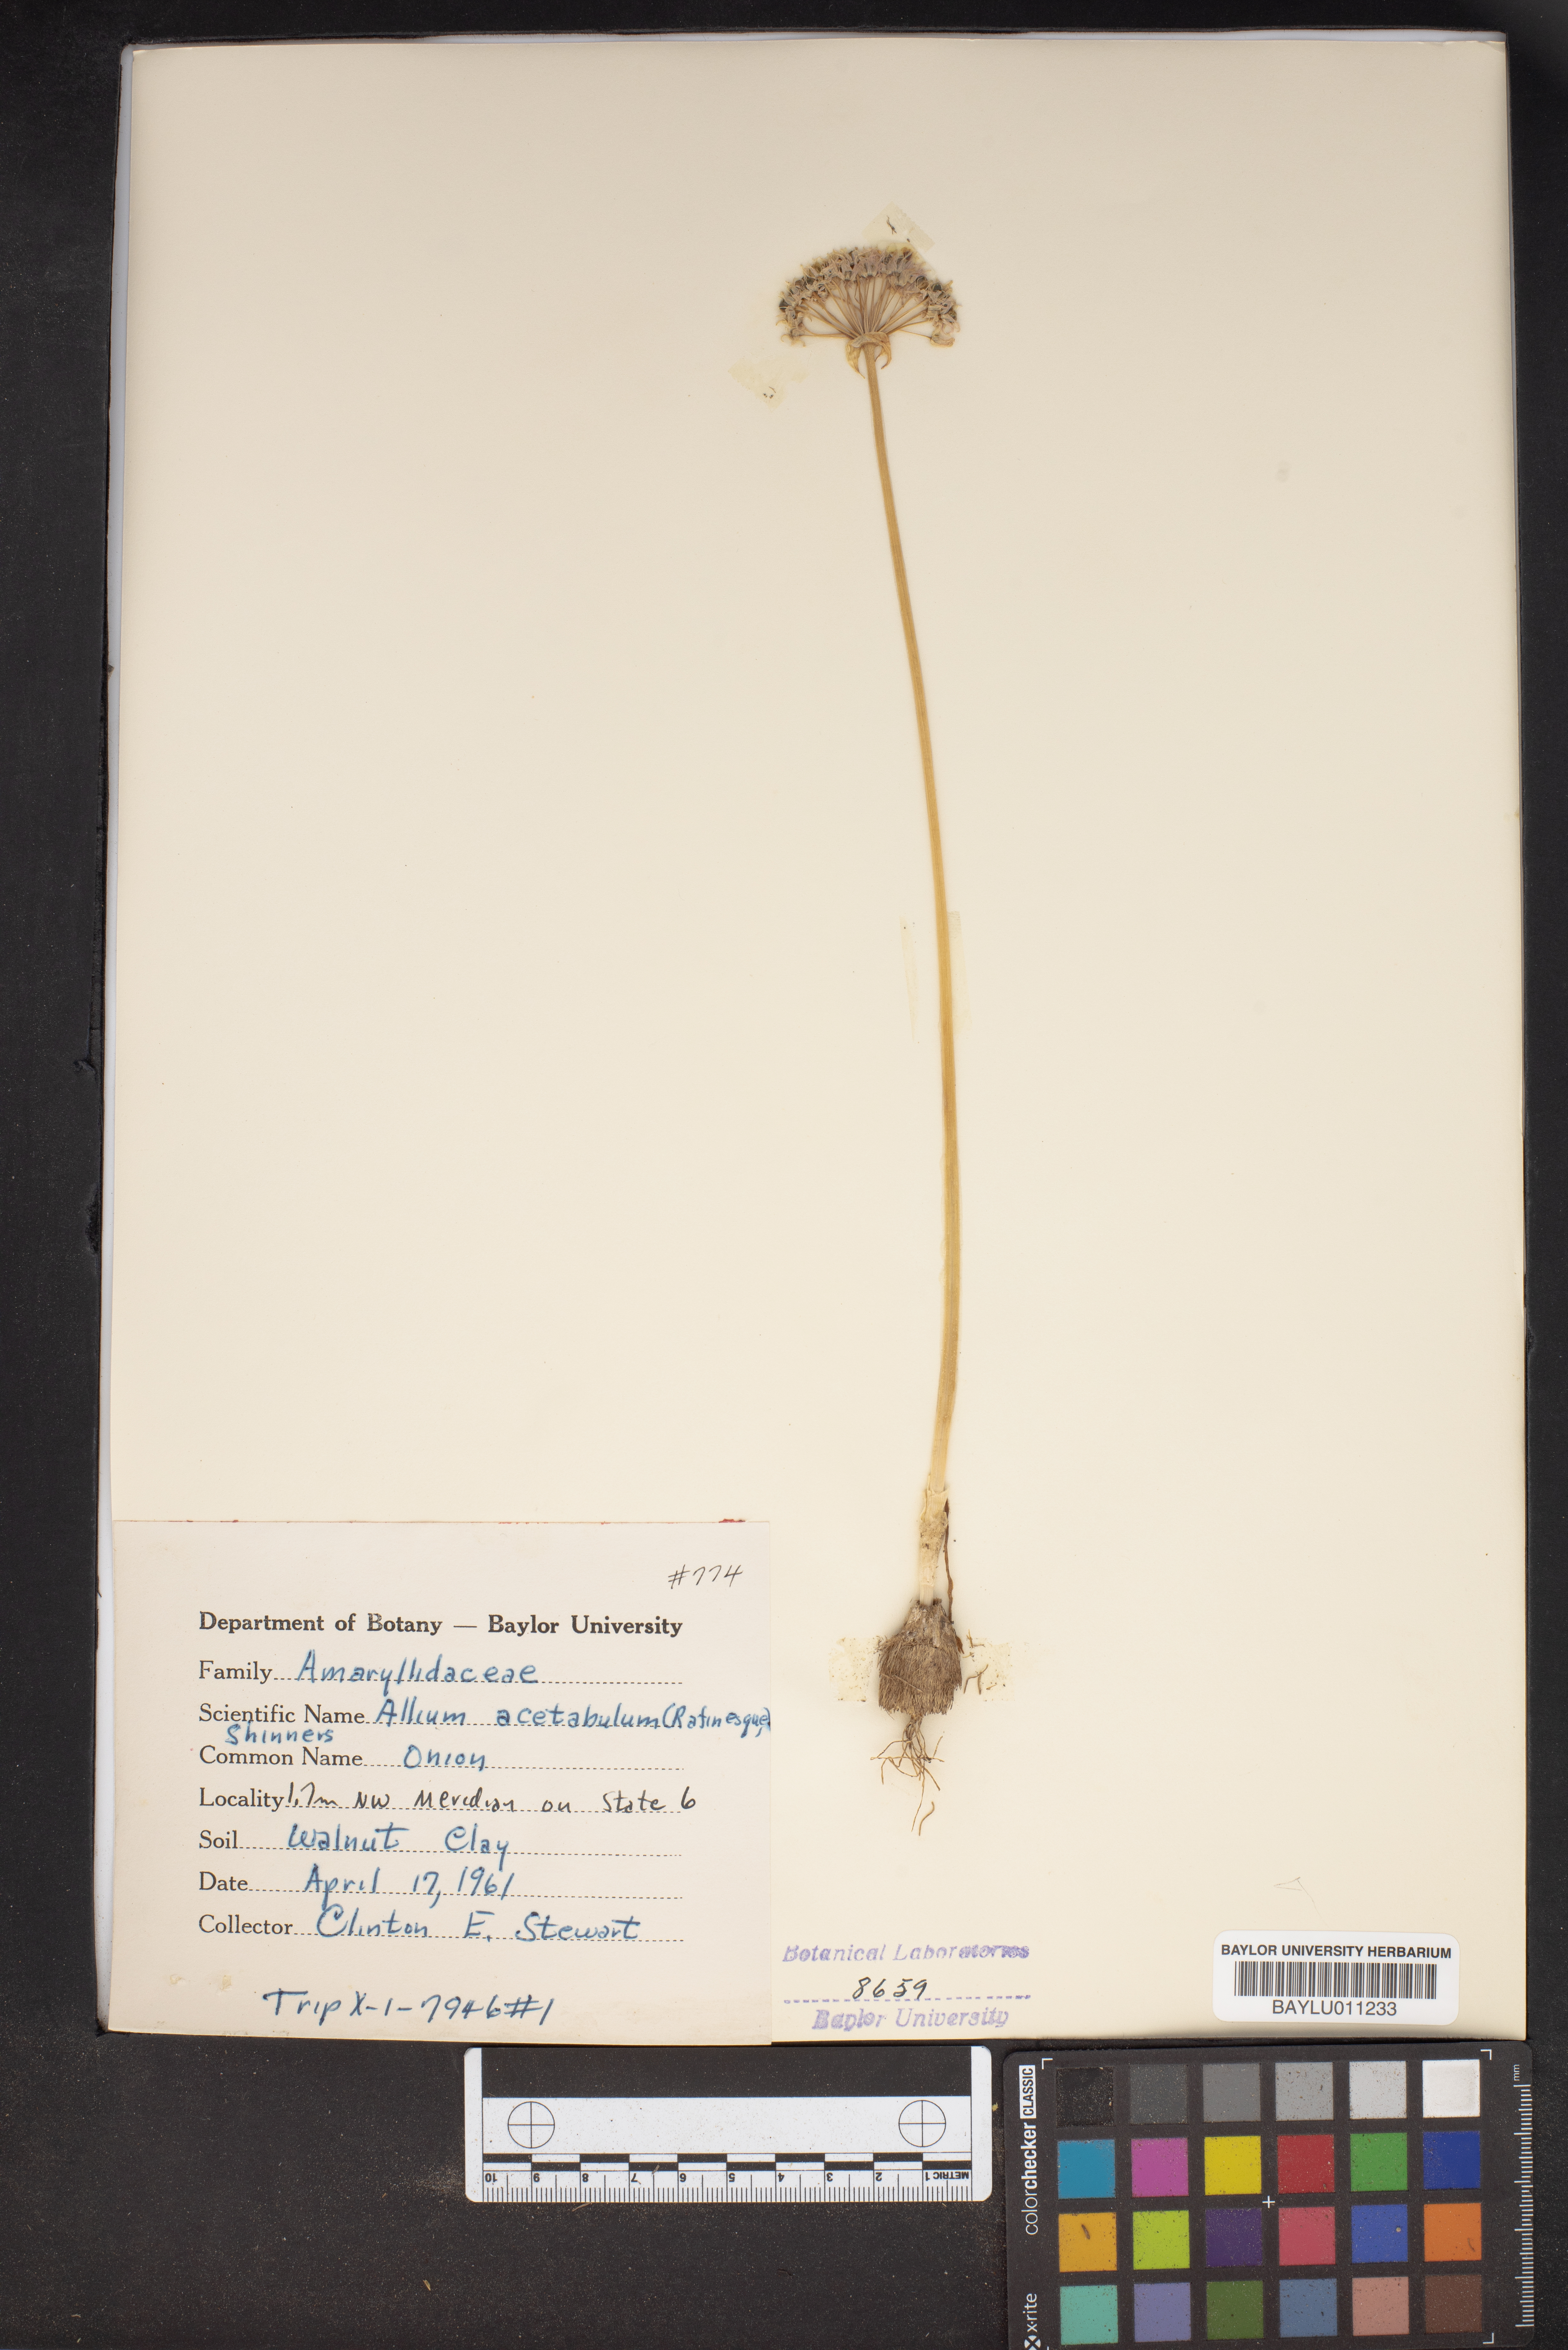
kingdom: Plantae
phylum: Tracheophyta
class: Liliopsida
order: Asparagales
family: Amaryllidaceae
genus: Allium
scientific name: Allium canadense
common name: Meadow garlic
